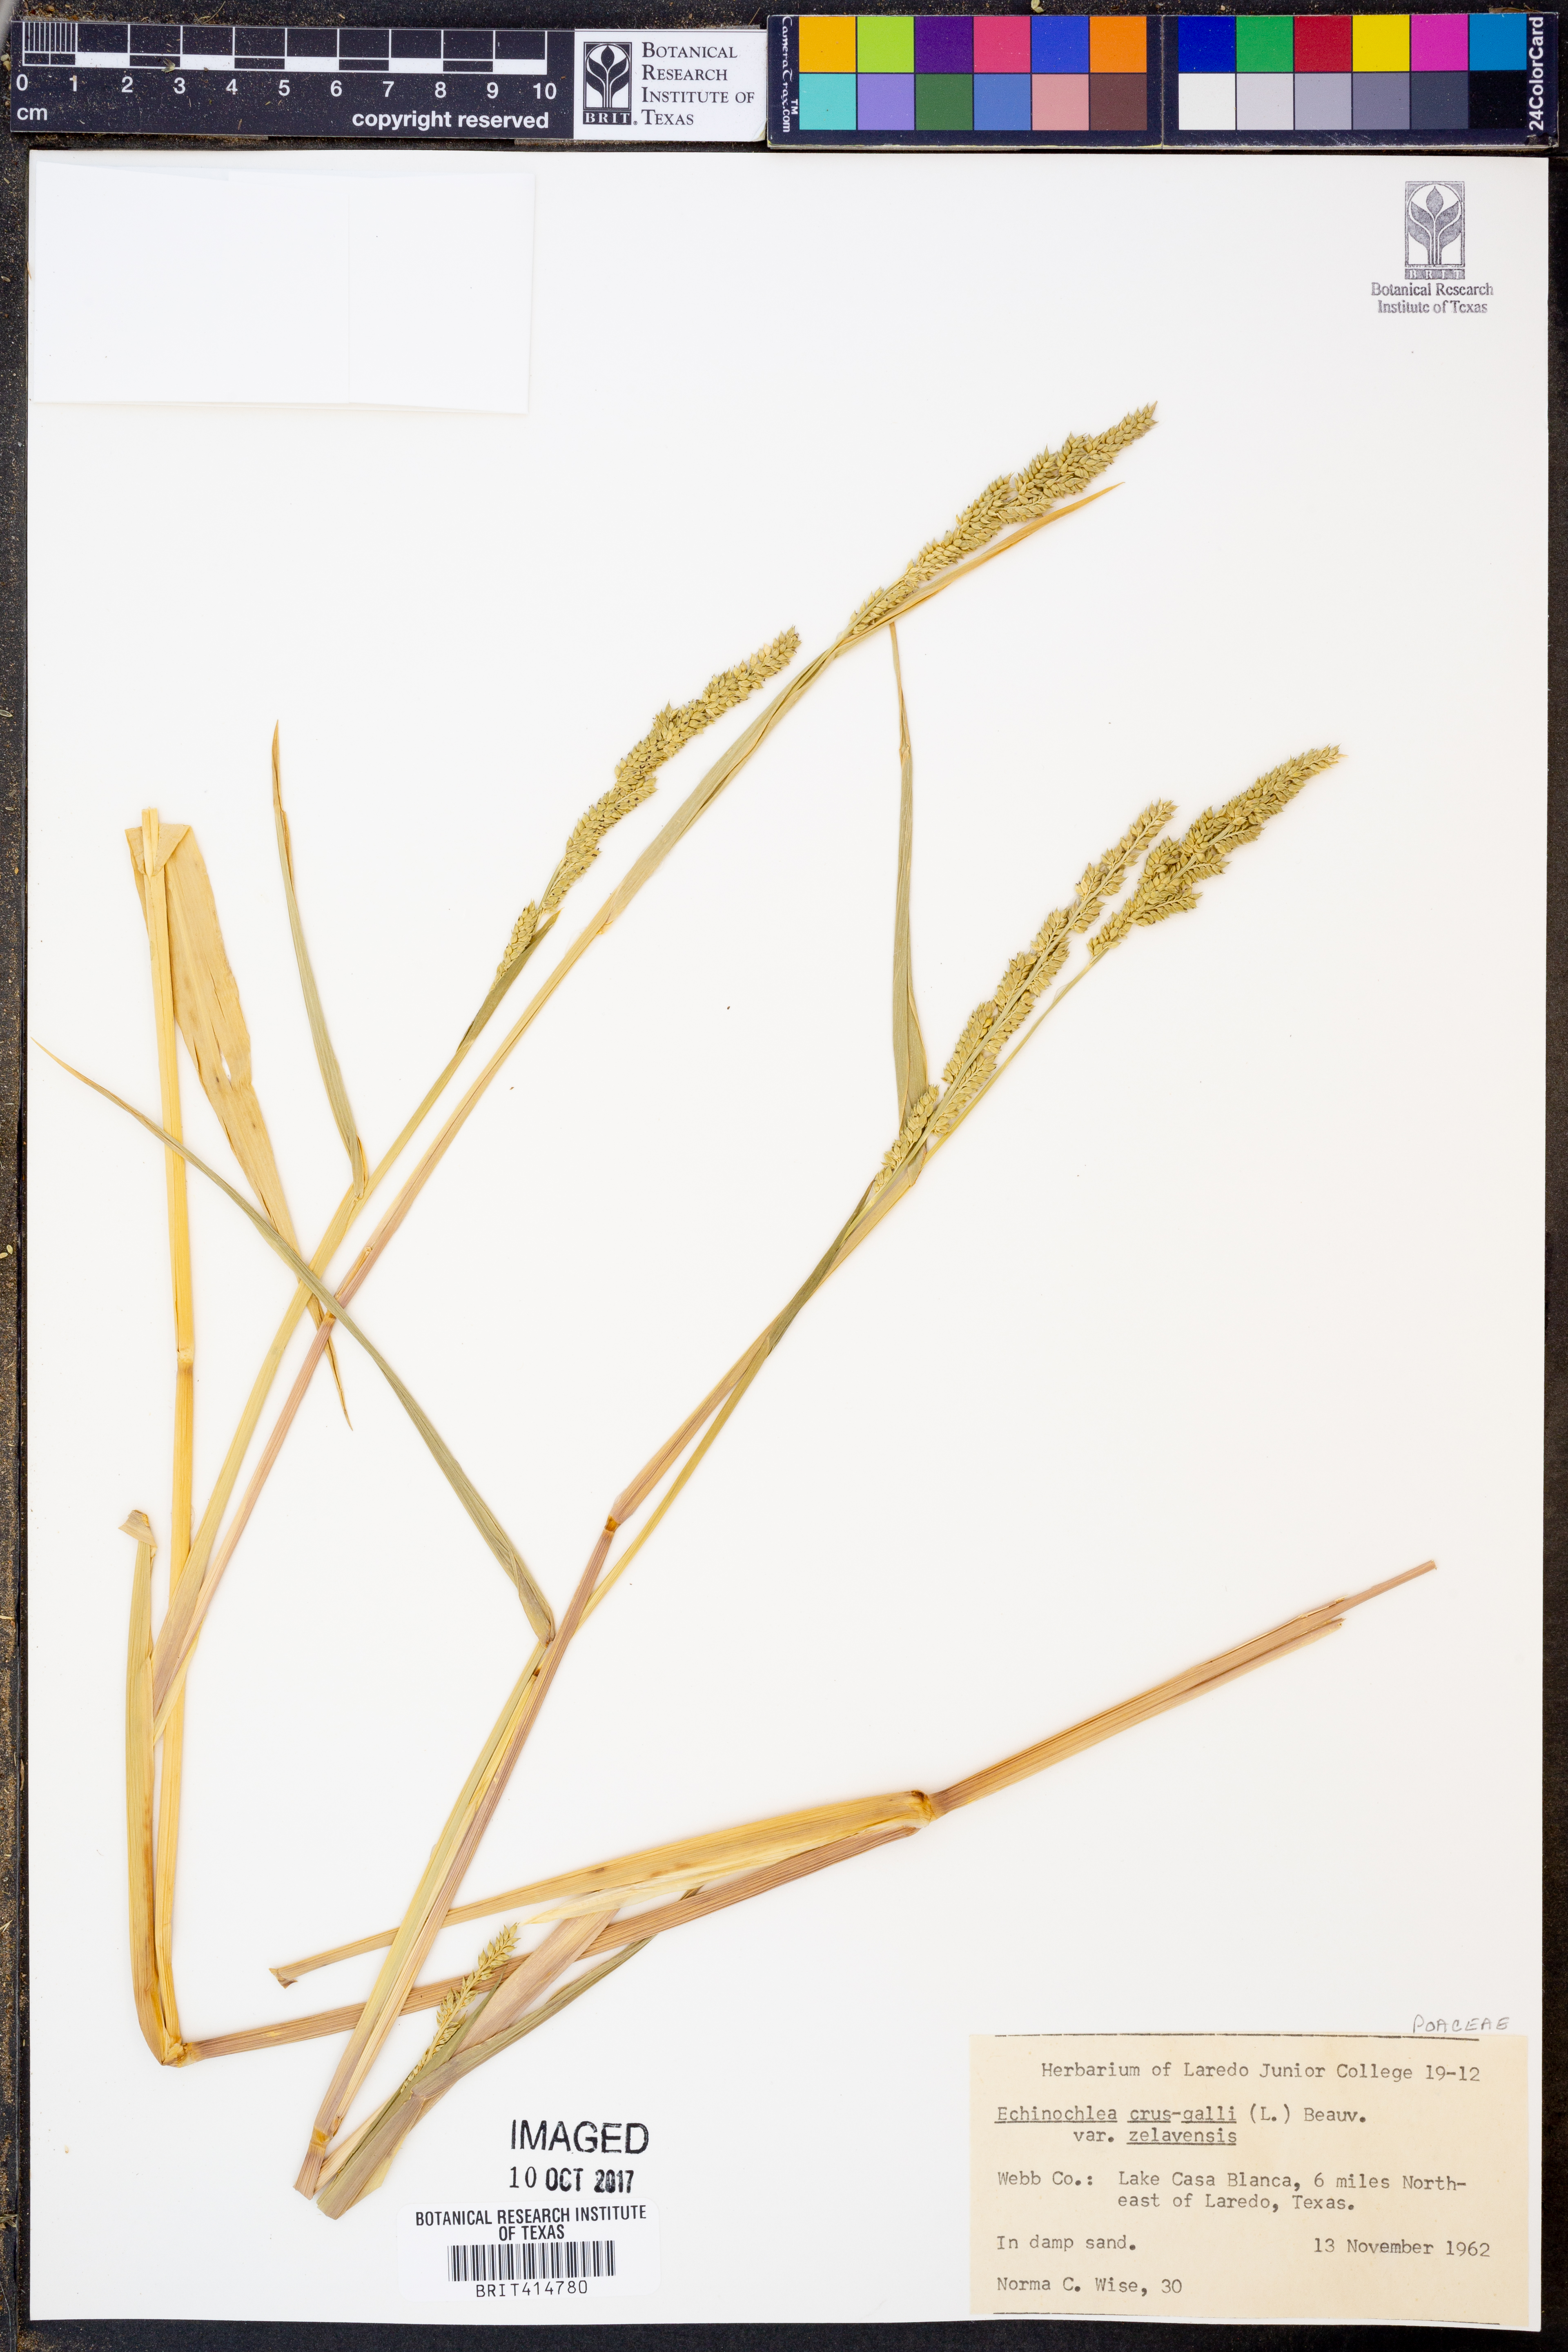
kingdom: Plantae
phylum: Tracheophyta
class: Liliopsida
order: Poales
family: Poaceae
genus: Echinochloa
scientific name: Echinochloa crus-galli
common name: Cockspur
